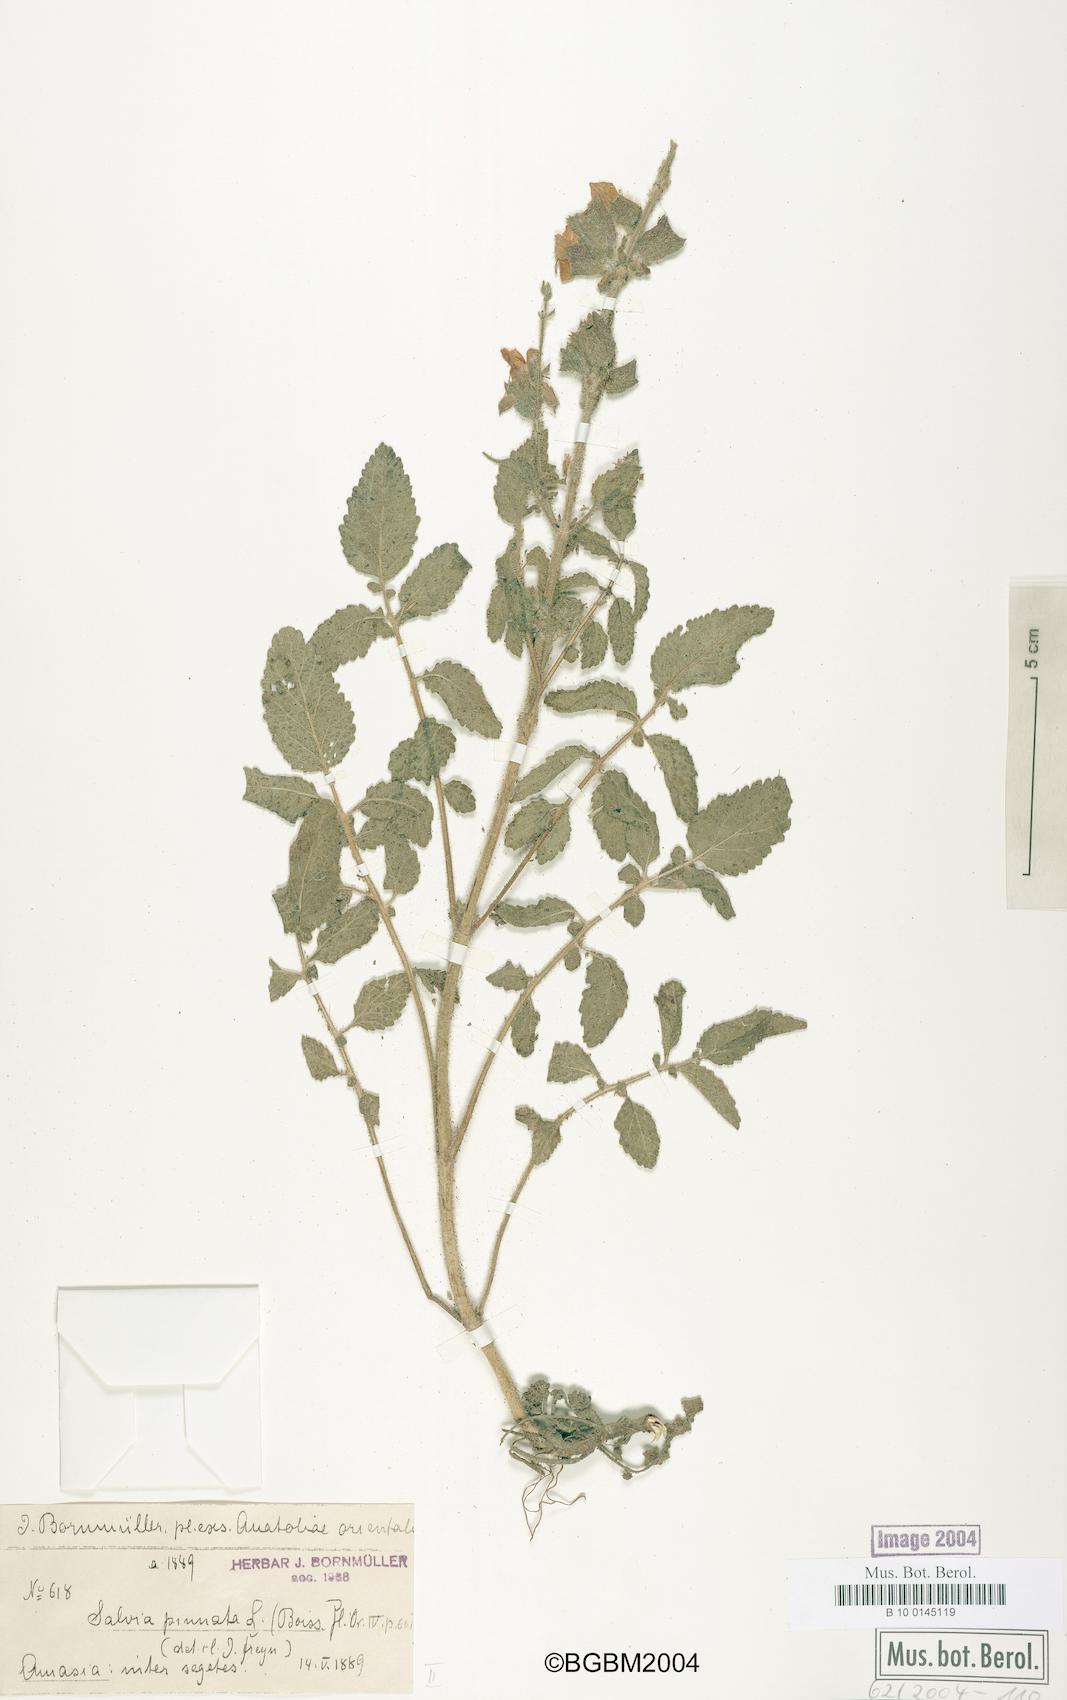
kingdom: Plantae
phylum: Tracheophyta
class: Magnoliopsida
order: Lamiales
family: Lamiaceae
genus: Salvia
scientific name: Salvia pinnata
